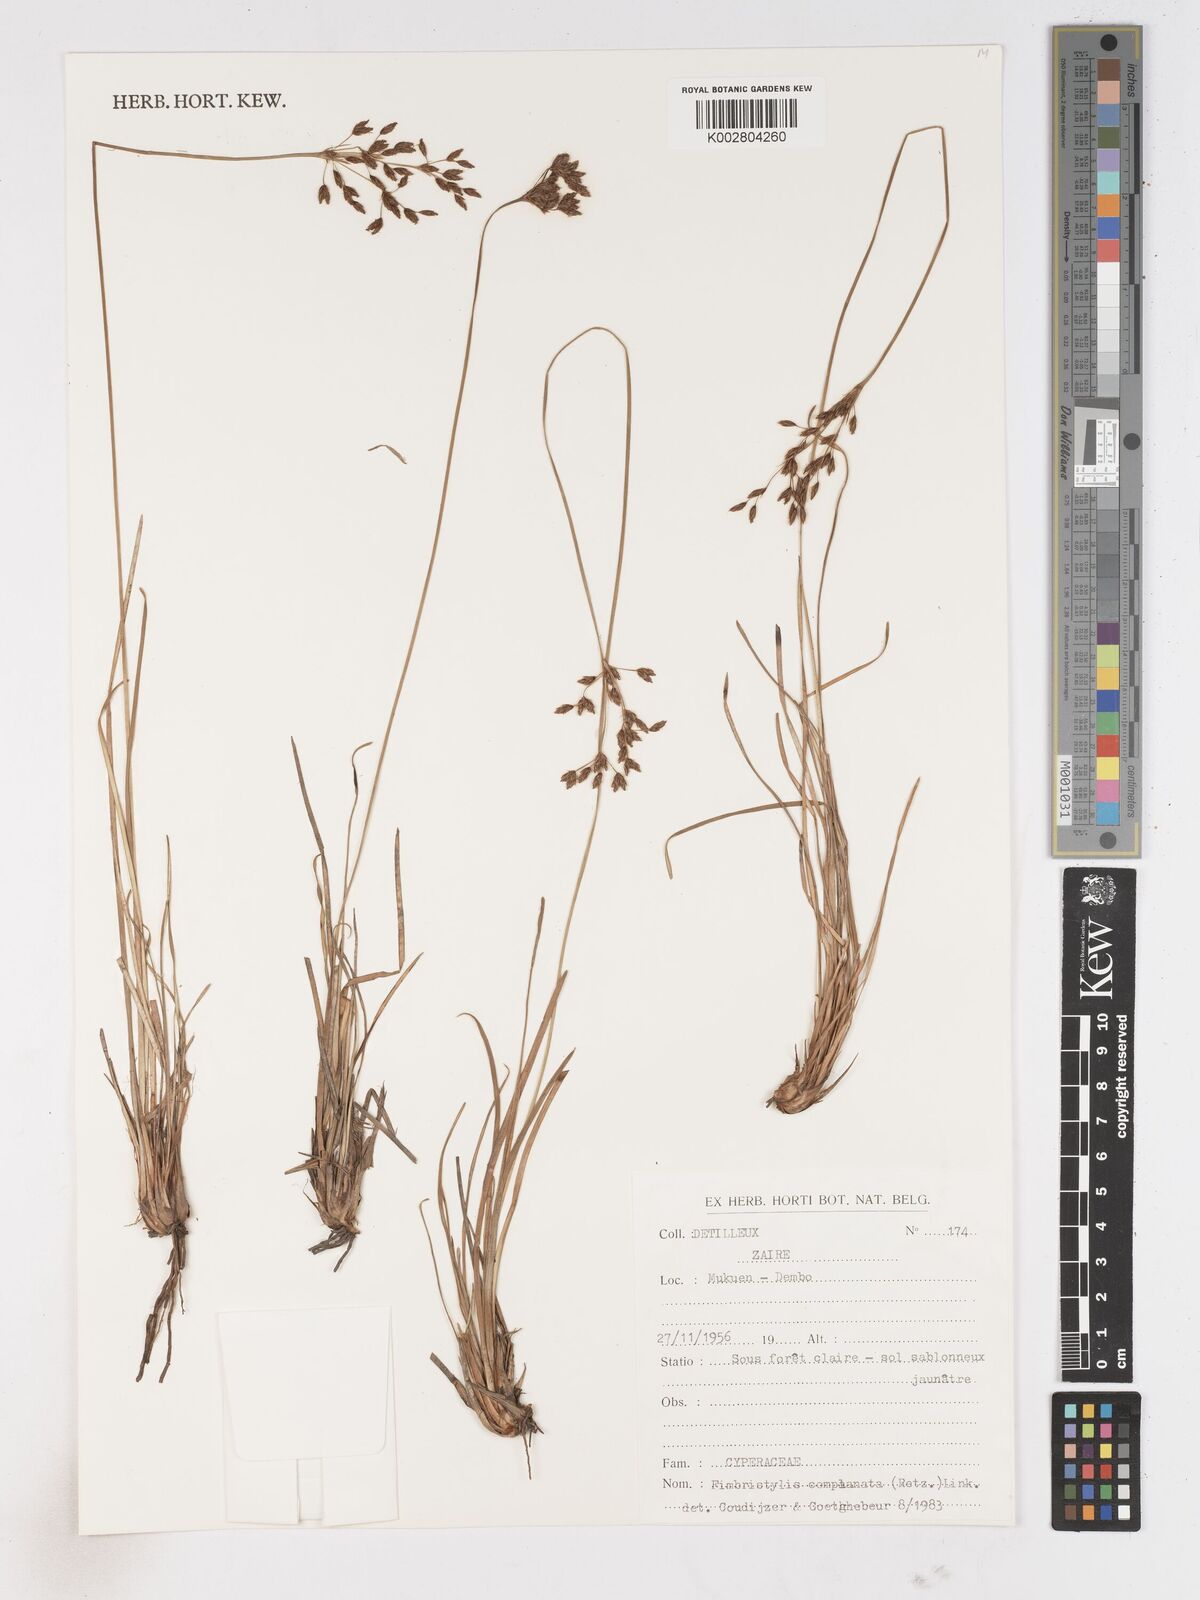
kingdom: Plantae
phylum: Tracheophyta
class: Liliopsida
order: Poales
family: Cyperaceae
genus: Fimbristylis
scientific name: Fimbristylis complanata
